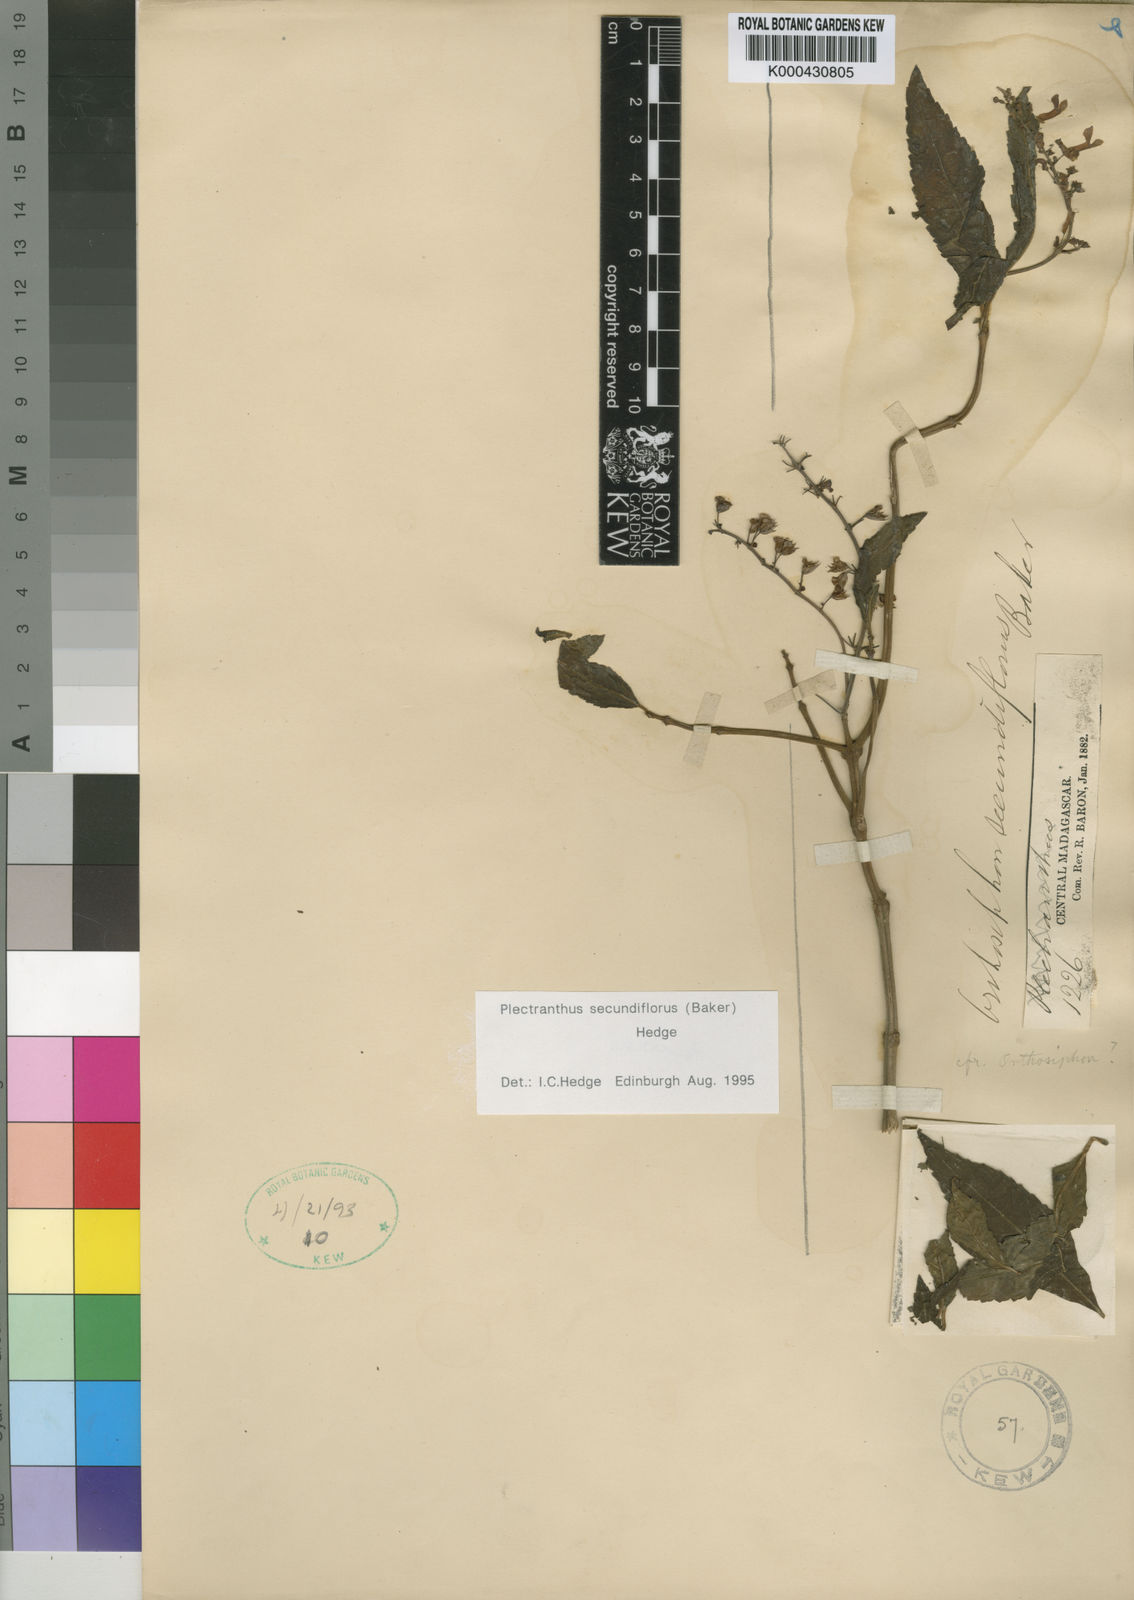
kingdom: Plantae
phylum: Tracheophyta
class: Magnoliopsida
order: Lamiales
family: Lamiaceae
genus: Plectranthus
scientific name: Plectranthus secundiflorus
